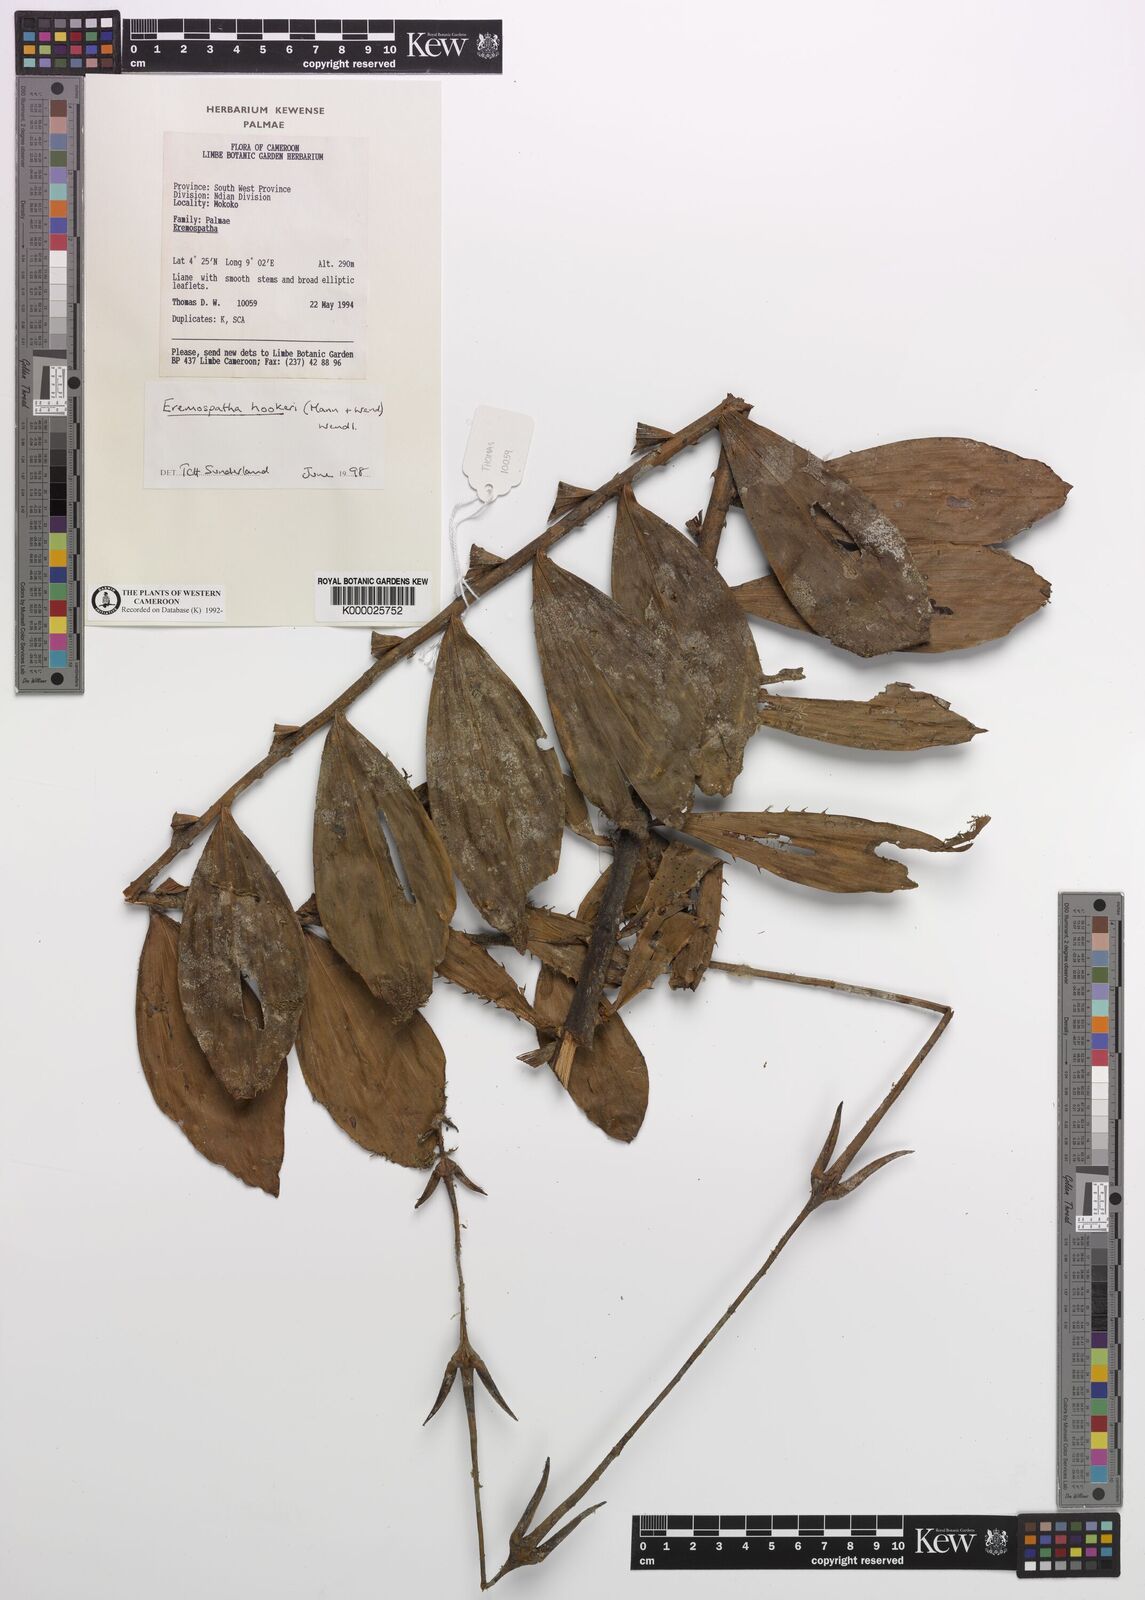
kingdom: Plantae
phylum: Tracheophyta
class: Liliopsida
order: Arecales
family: Arecaceae
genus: Eremospatha
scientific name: Eremospatha hookeri
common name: Rattan
